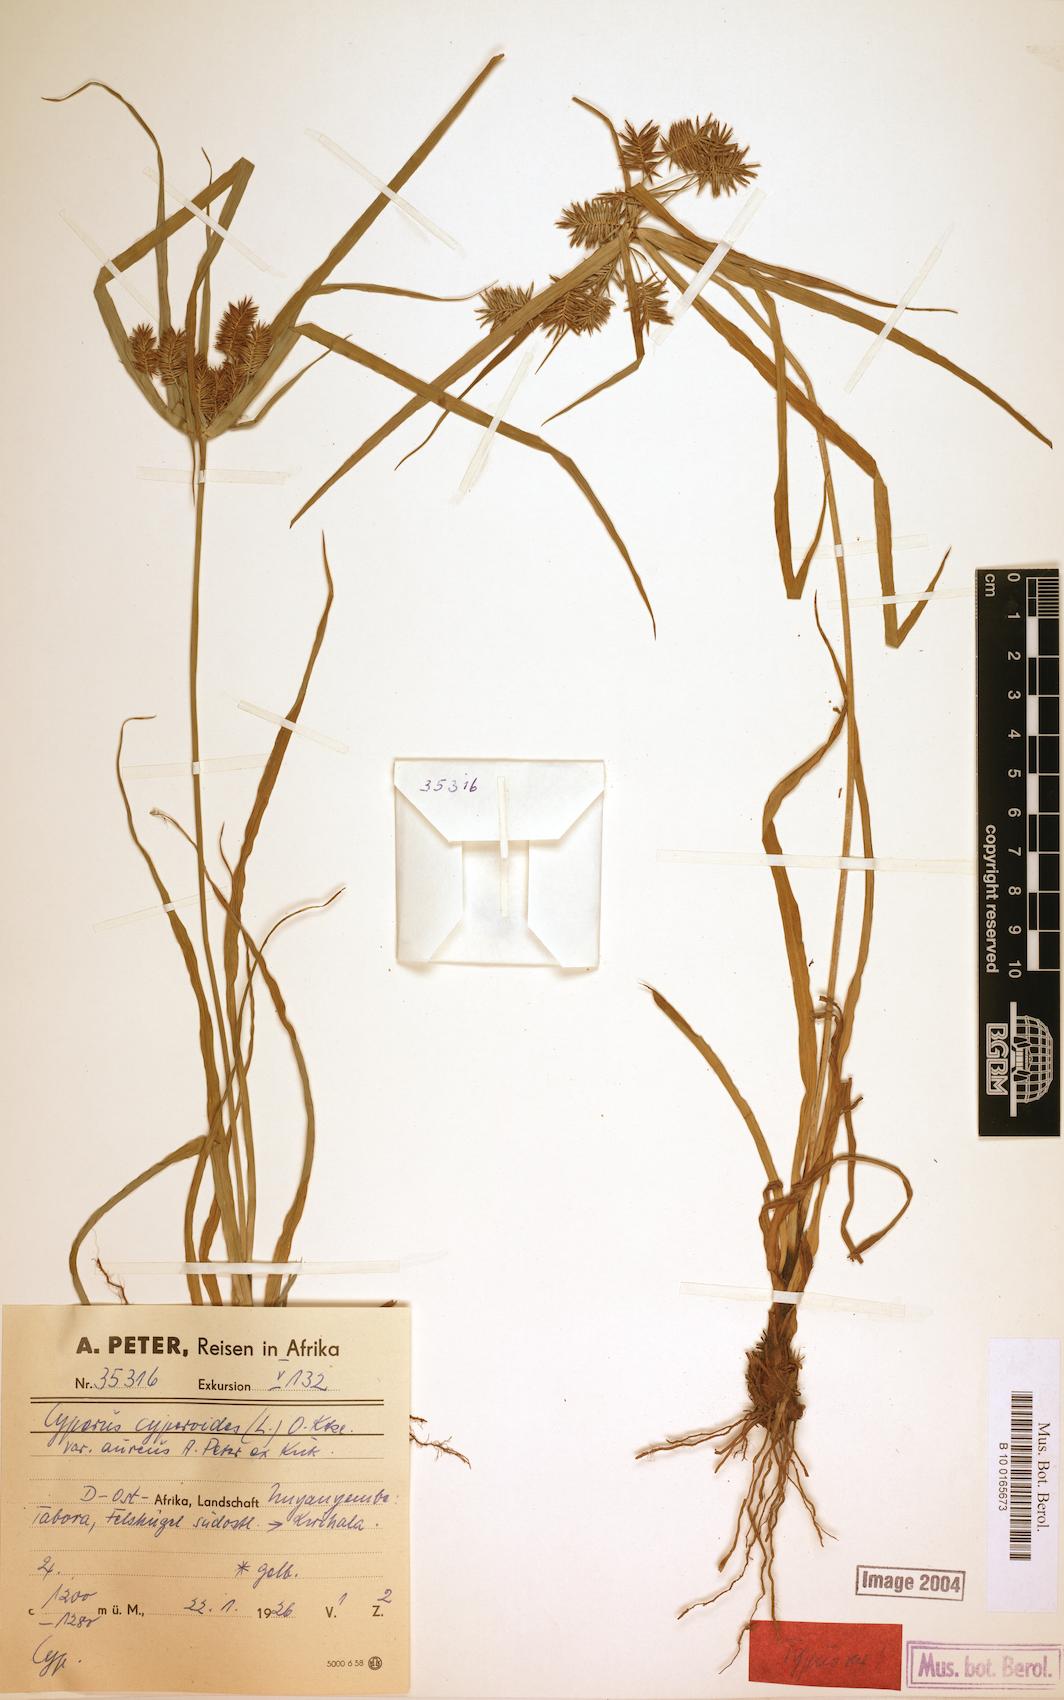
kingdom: Plantae
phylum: Tracheophyta
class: Liliopsida
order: Poales
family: Cyperaceae
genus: Cyperus
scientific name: Cyperus cyperoides
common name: Pacific island flat sedge
